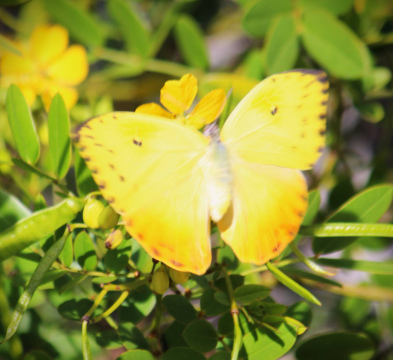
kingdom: Animalia
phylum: Arthropoda
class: Insecta
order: Lepidoptera
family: Pieridae
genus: Phoebis
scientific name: Phoebis philea
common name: Orange-barred Sulphur
